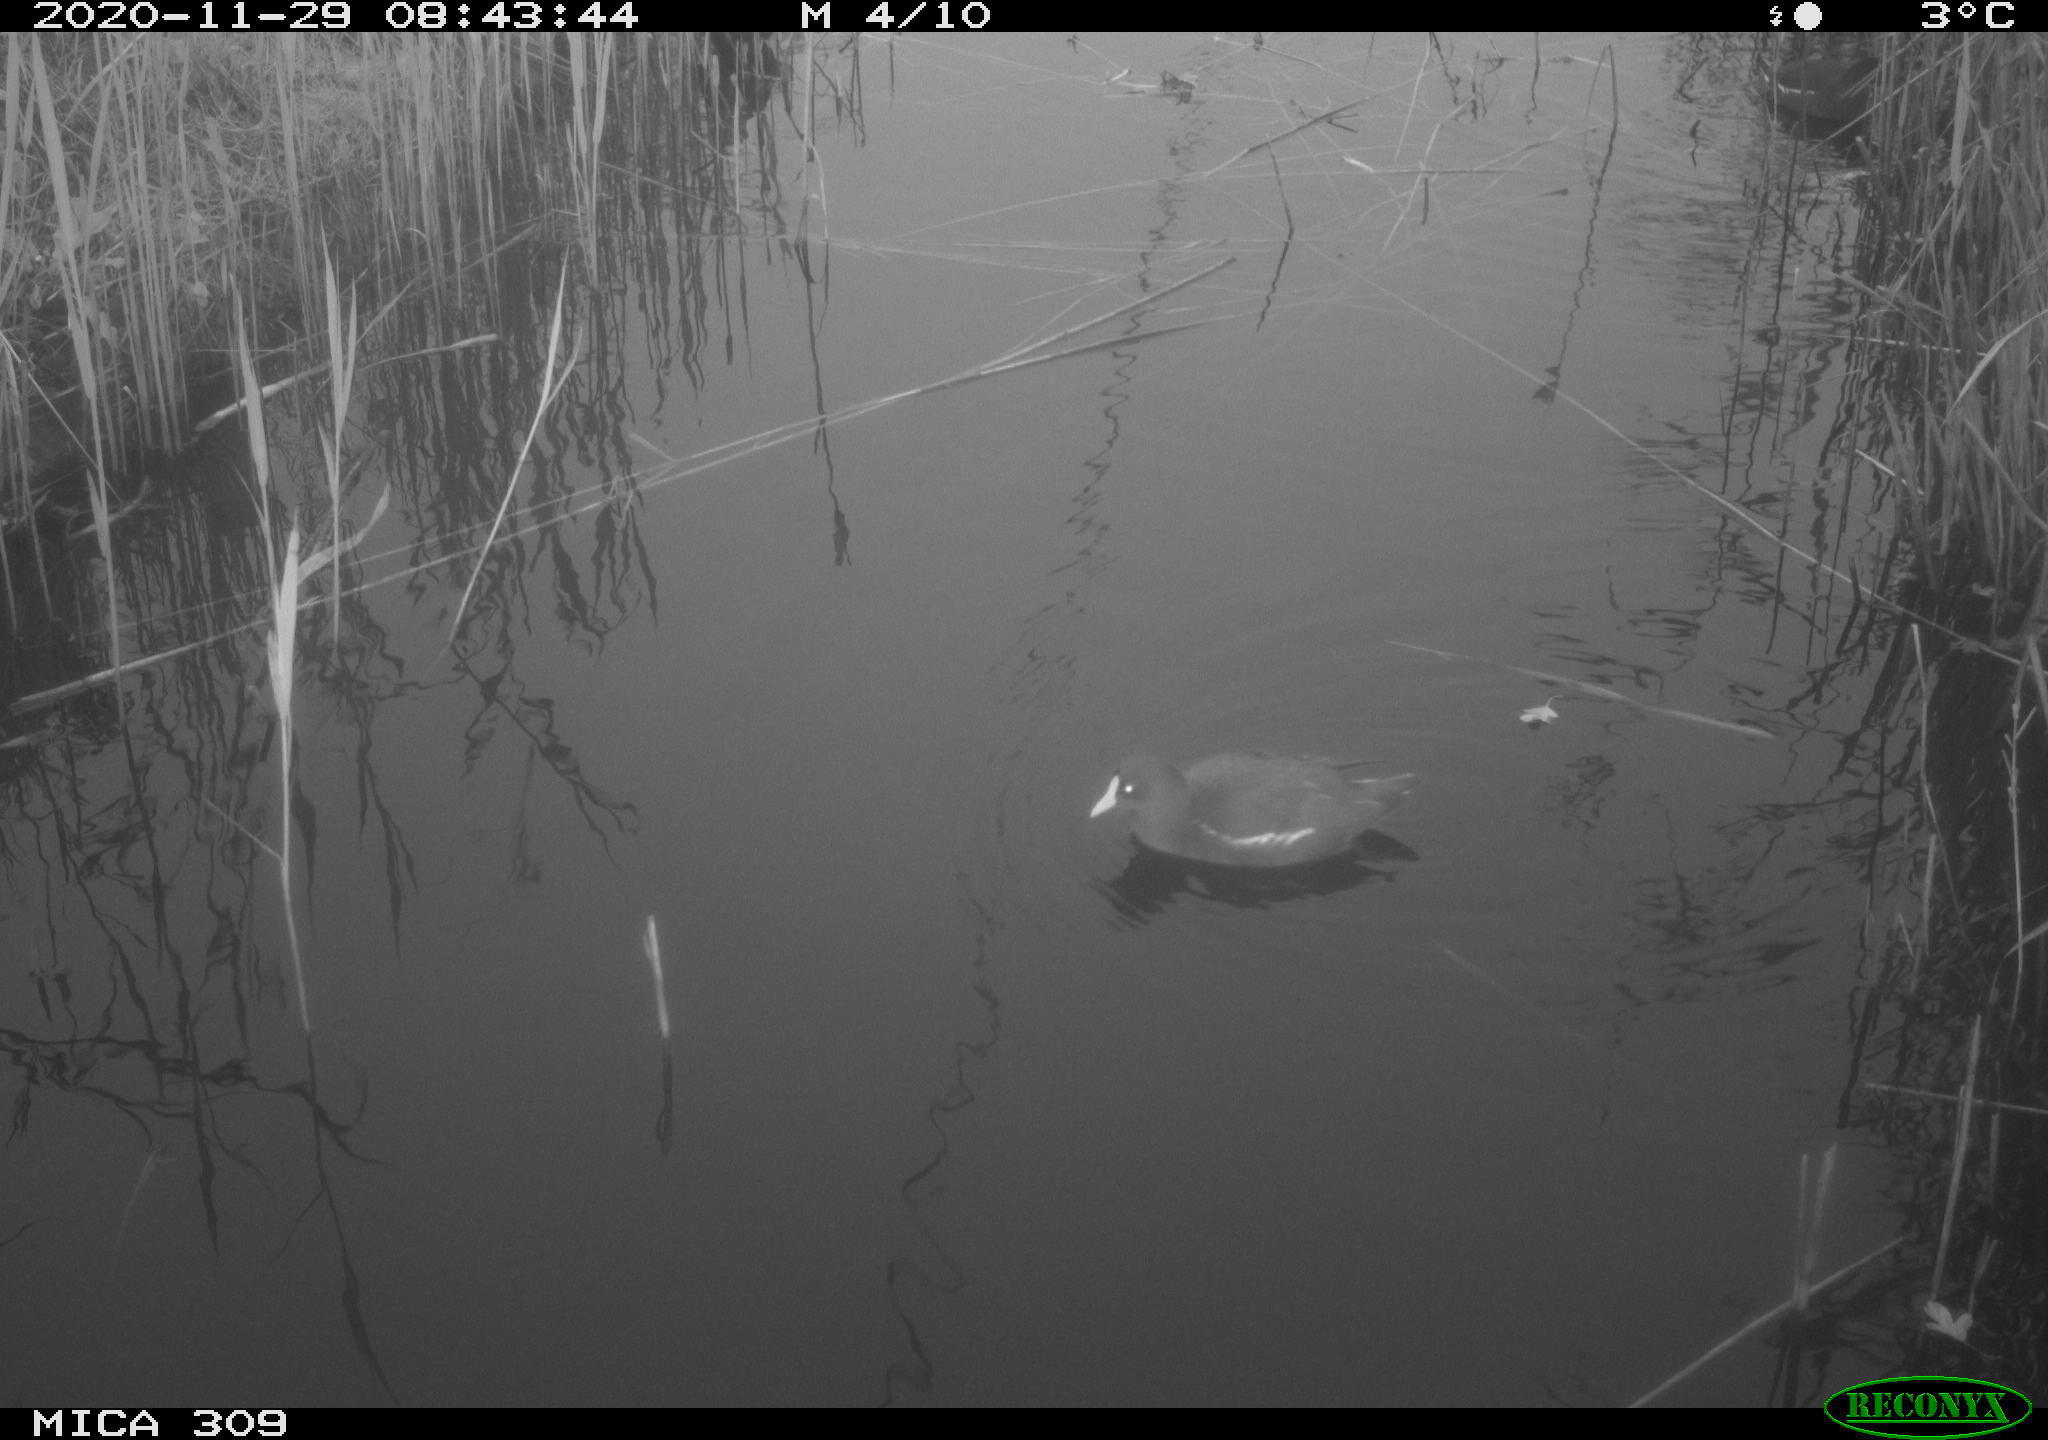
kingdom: Animalia
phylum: Chordata
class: Aves
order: Gruiformes
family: Rallidae
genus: Gallinula
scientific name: Gallinula chloropus
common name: Common moorhen
